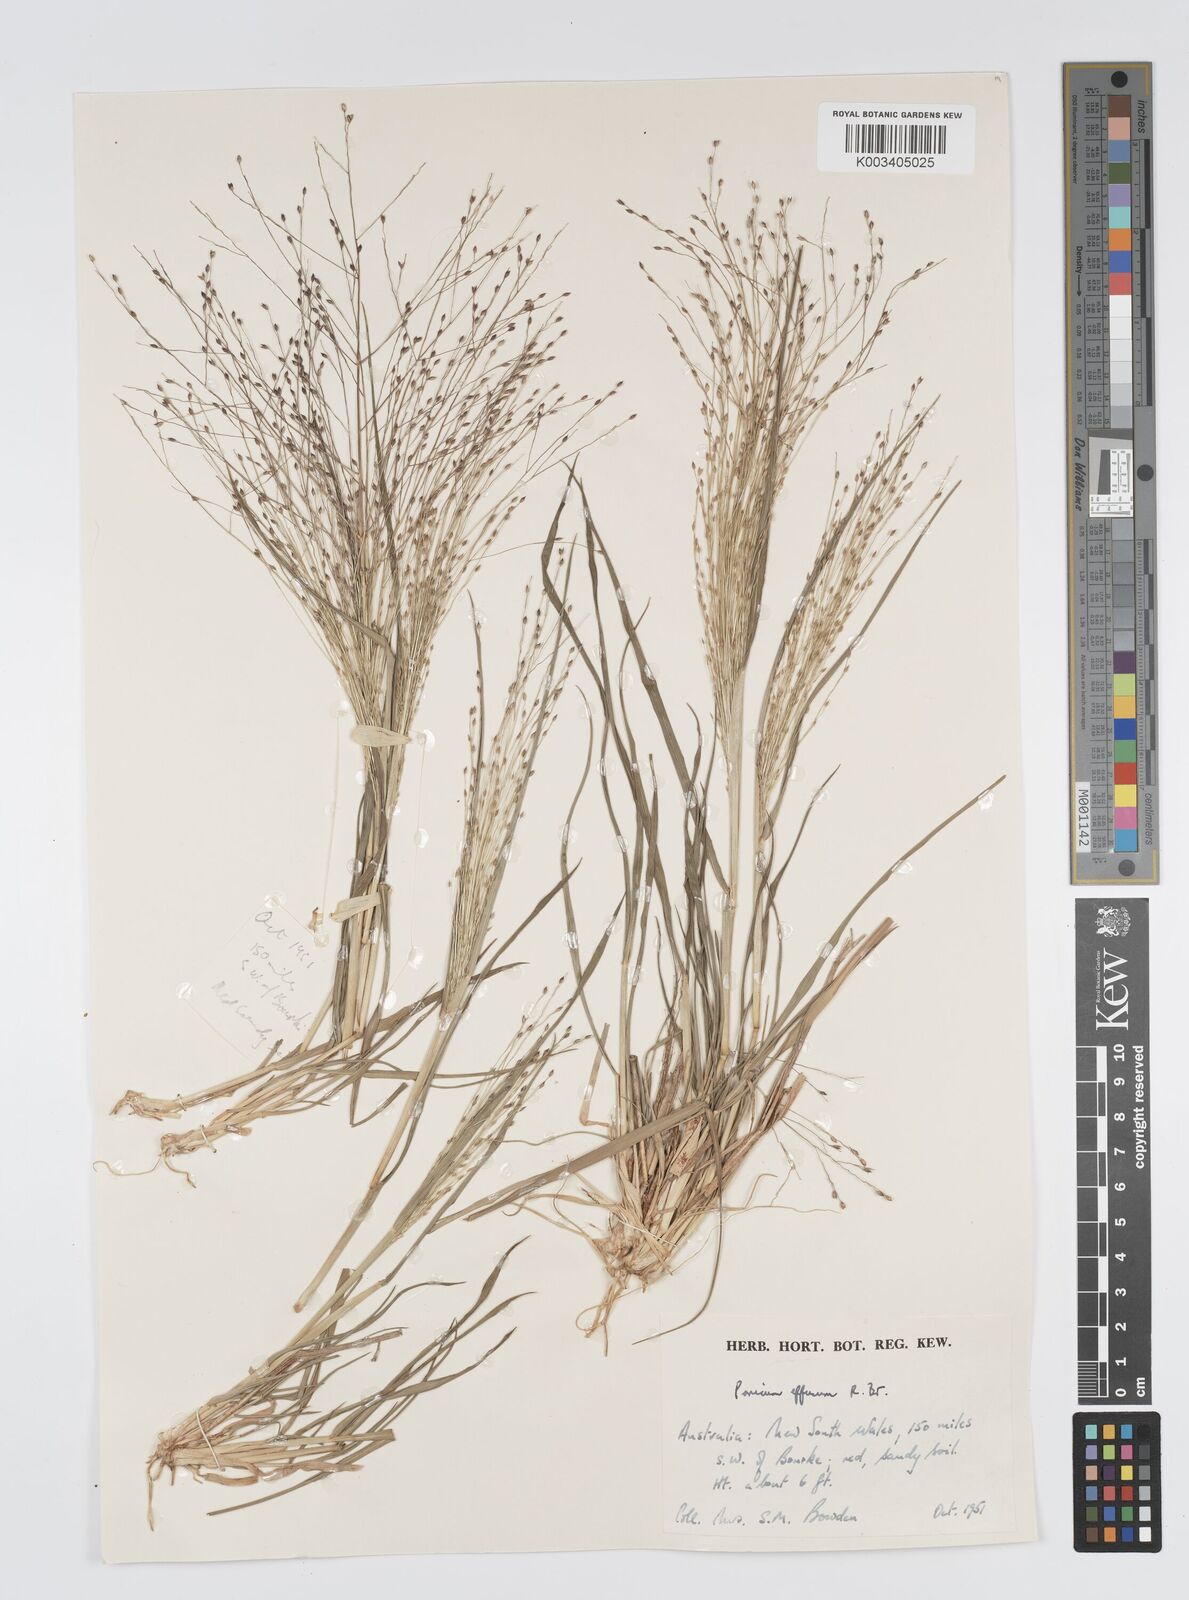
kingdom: Plantae
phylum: Tracheophyta
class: Liliopsida
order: Poales
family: Poaceae
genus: Panicum
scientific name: Panicum effusum
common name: Hairy panic grass
